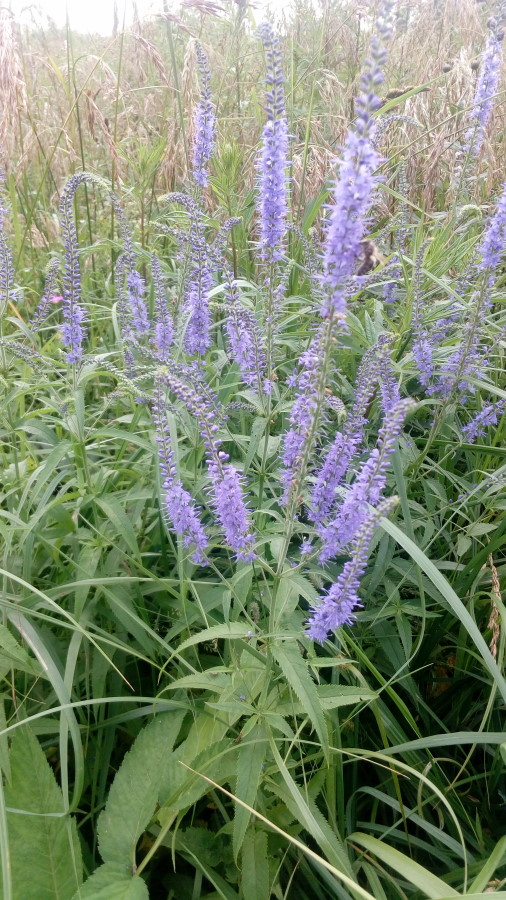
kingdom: Plantae
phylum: Tracheophyta
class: Magnoliopsida
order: Lamiales
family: Plantaginaceae
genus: Veronica
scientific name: Veronica longifolia
